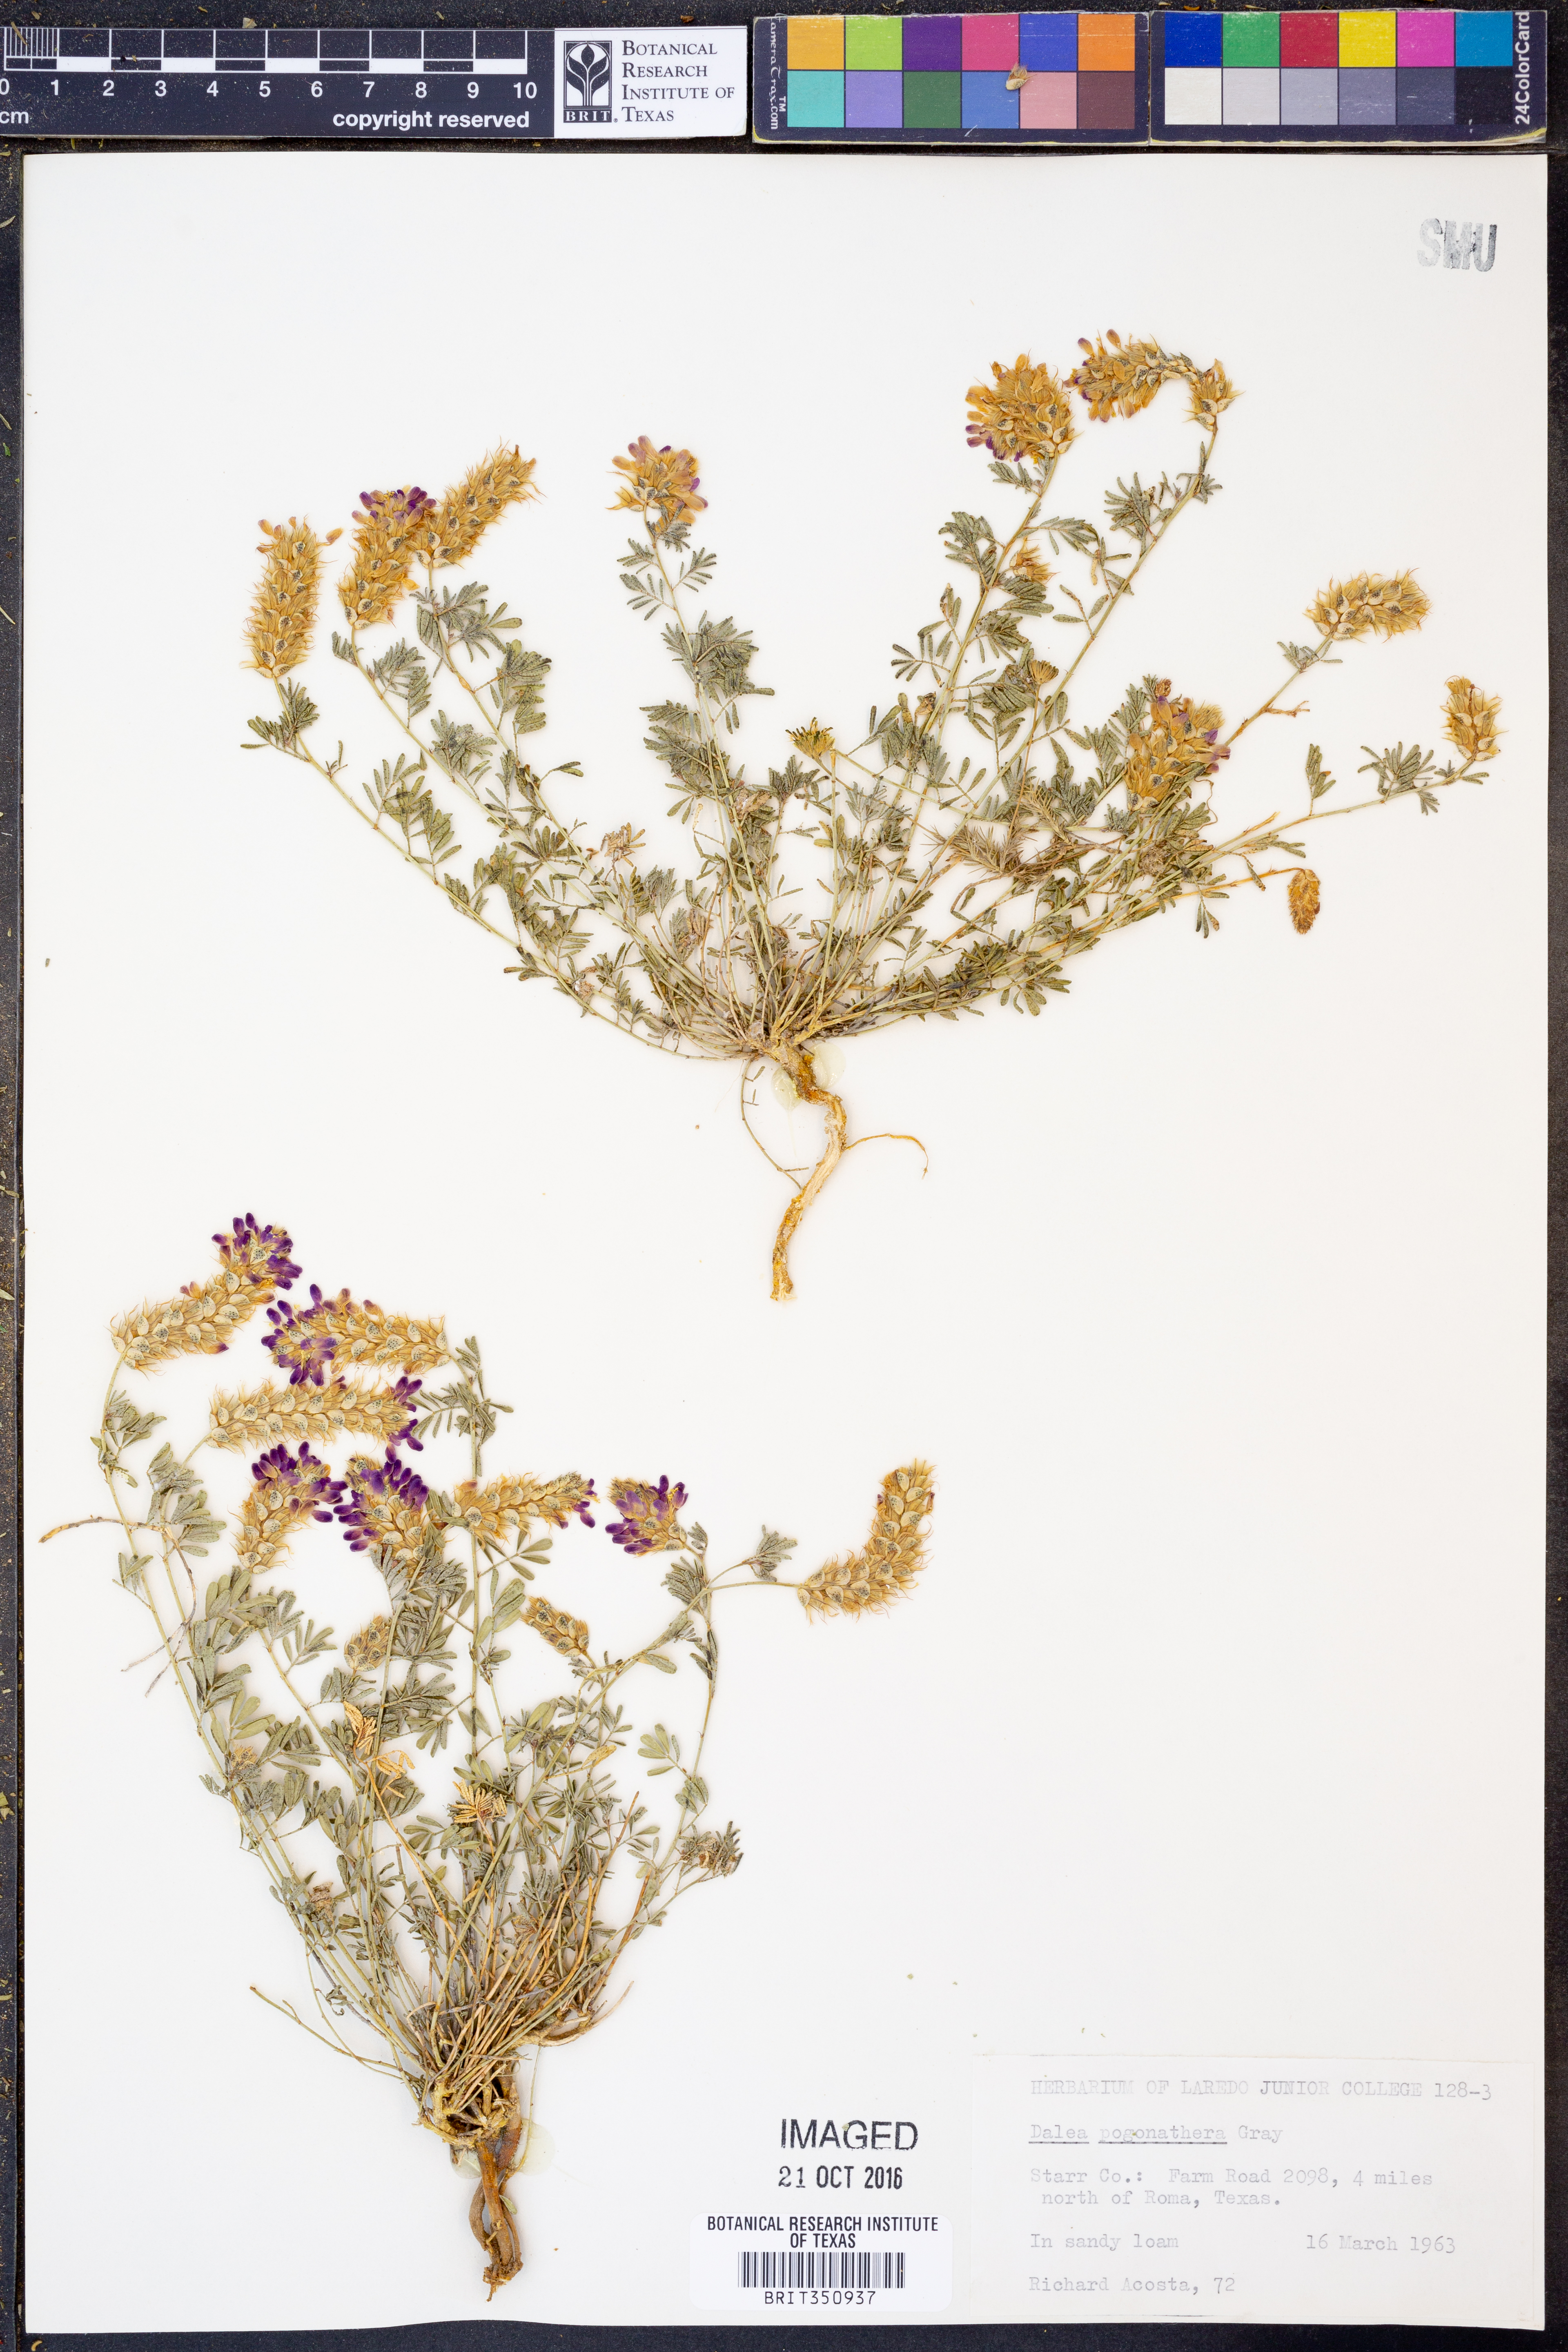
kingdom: Plantae
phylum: Tracheophyta
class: Magnoliopsida
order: Fabales
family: Fabaceae
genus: Dalea
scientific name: Dalea pogonathera
